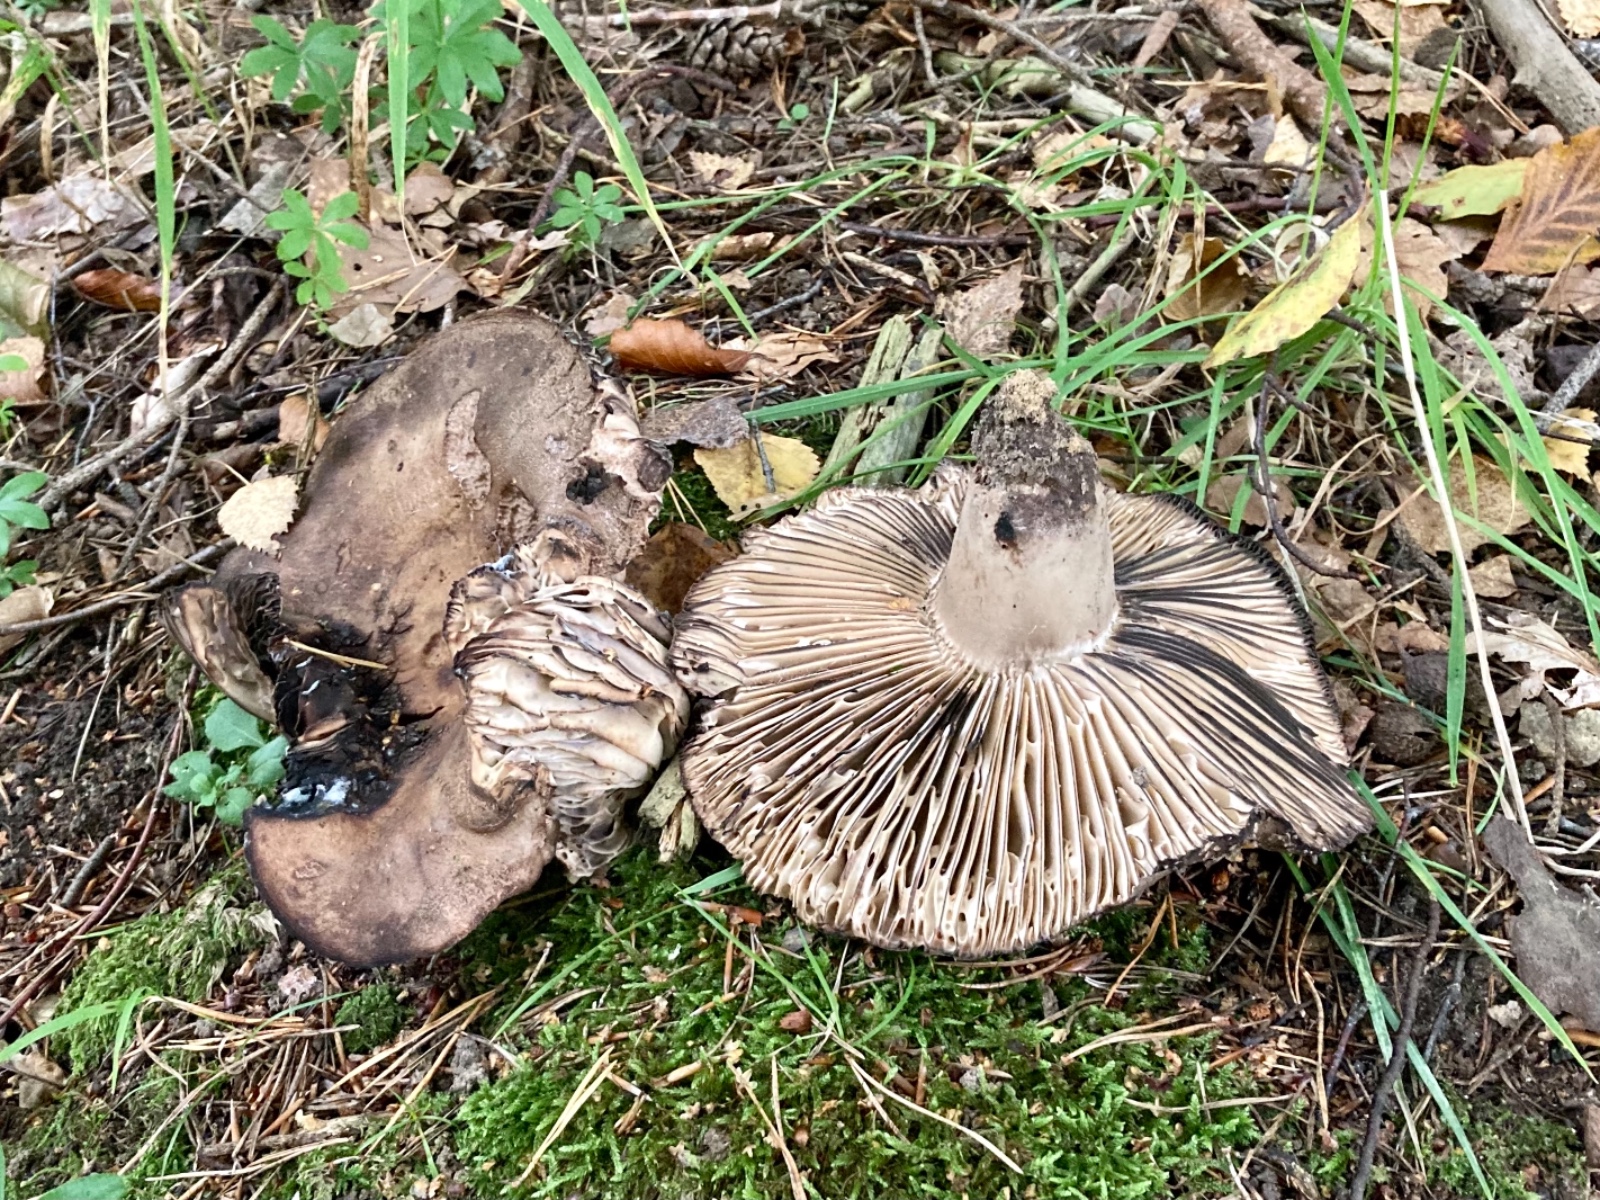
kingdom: Fungi
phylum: Basidiomycota
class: Agaricomycetes
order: Russulales
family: Russulaceae
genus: Russula
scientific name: Russula adusta
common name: sværtende skørhat
